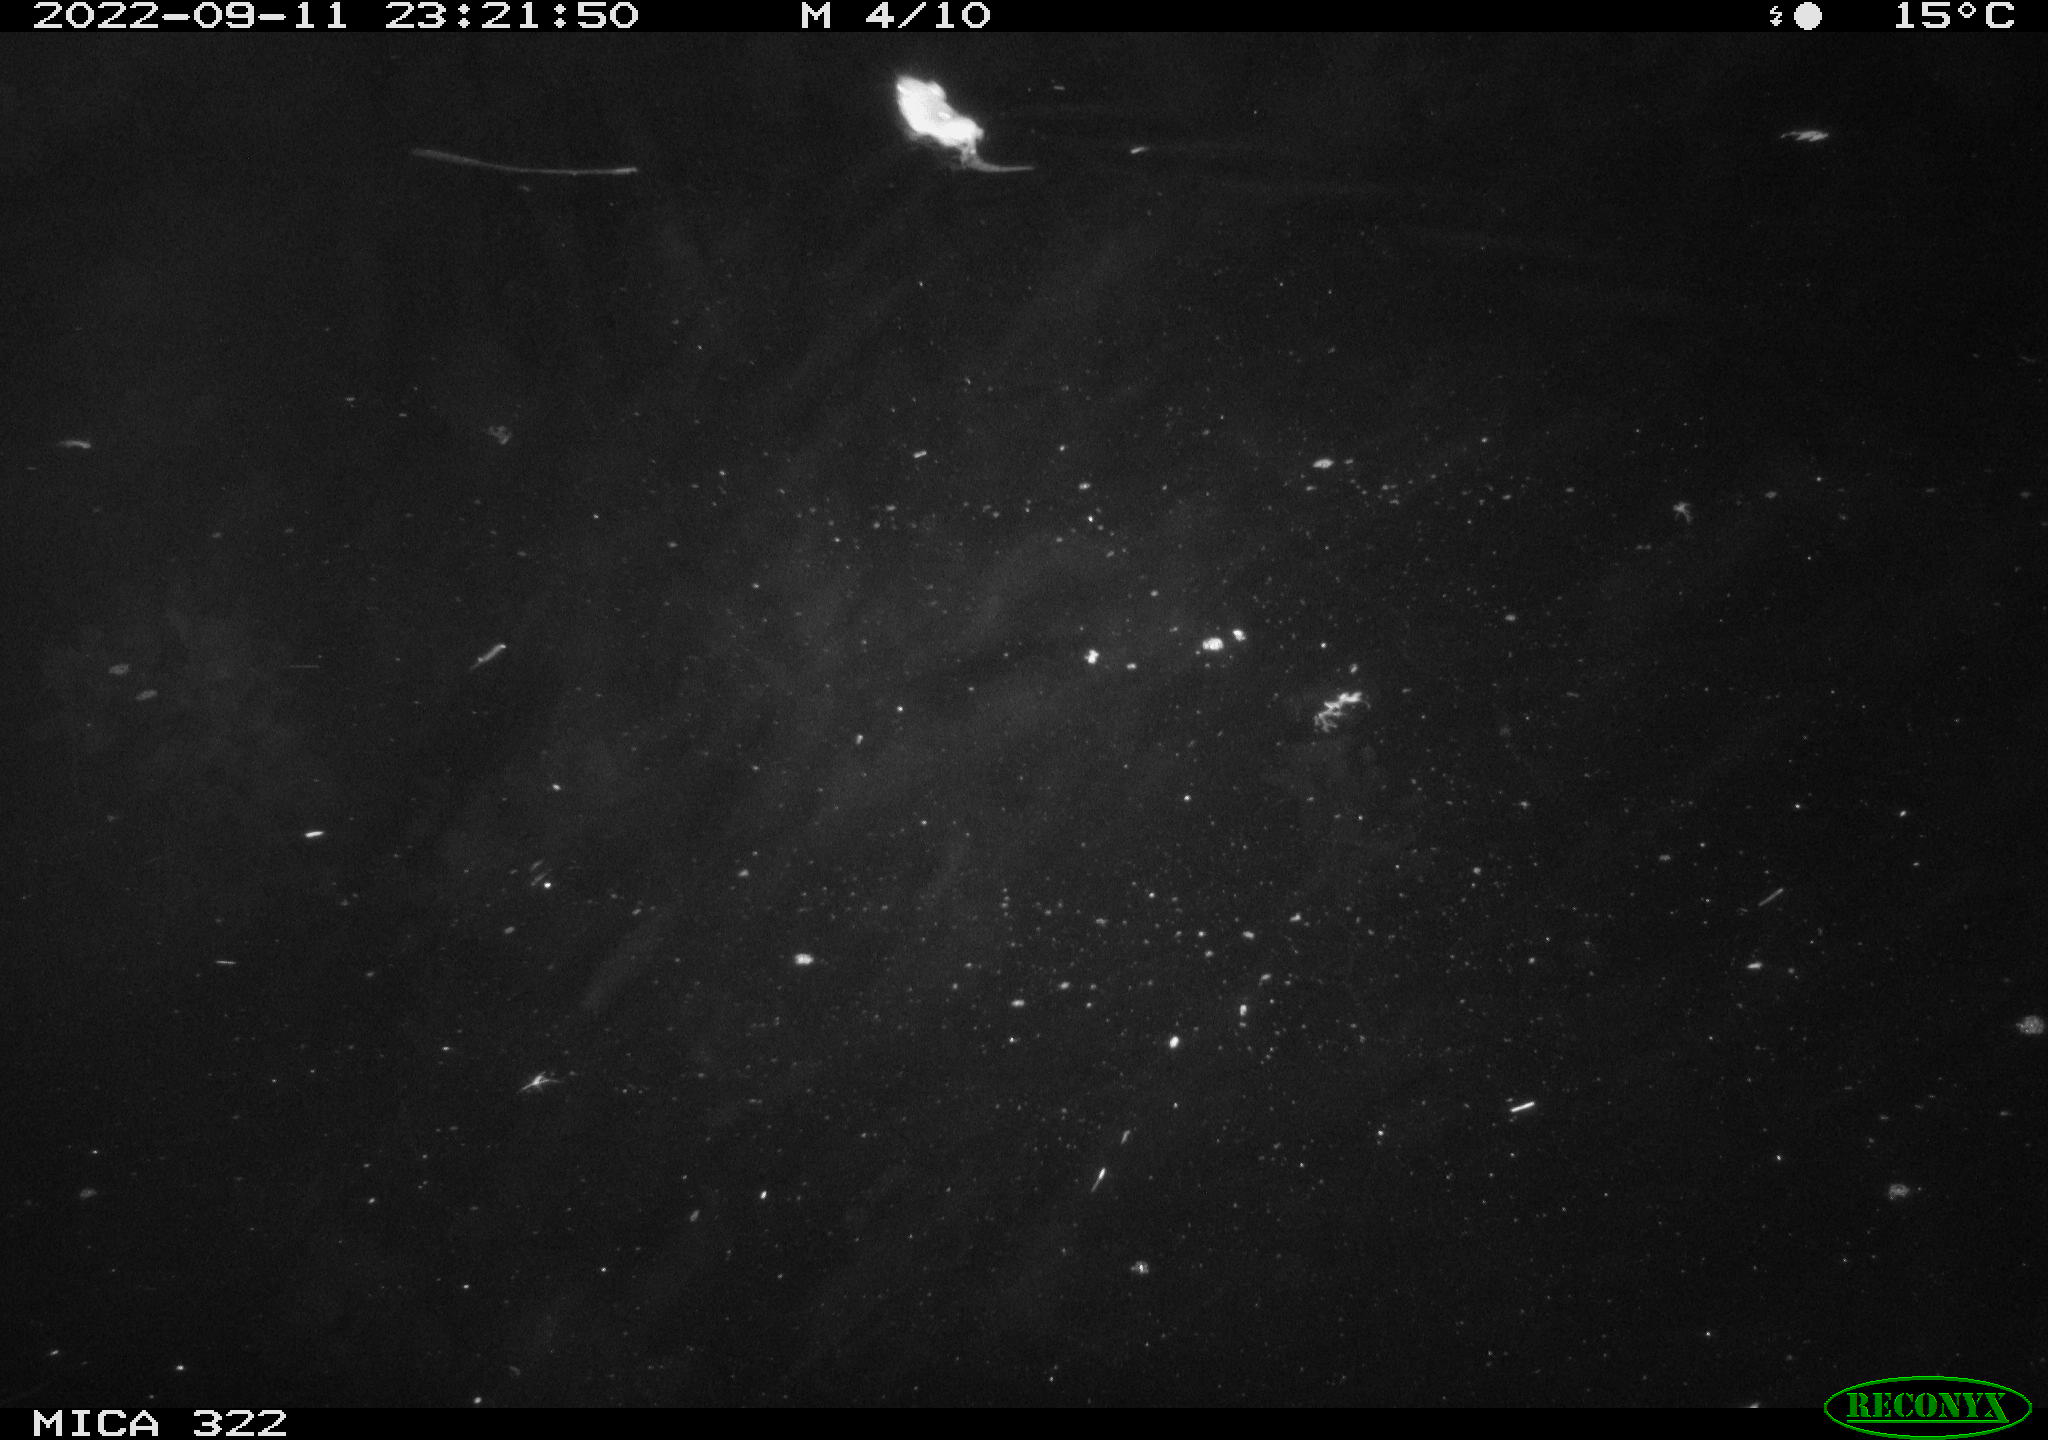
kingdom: Animalia
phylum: Chordata
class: Mammalia
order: Rodentia
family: Muridae
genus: Rattus
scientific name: Rattus norvegicus
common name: Brown rat
